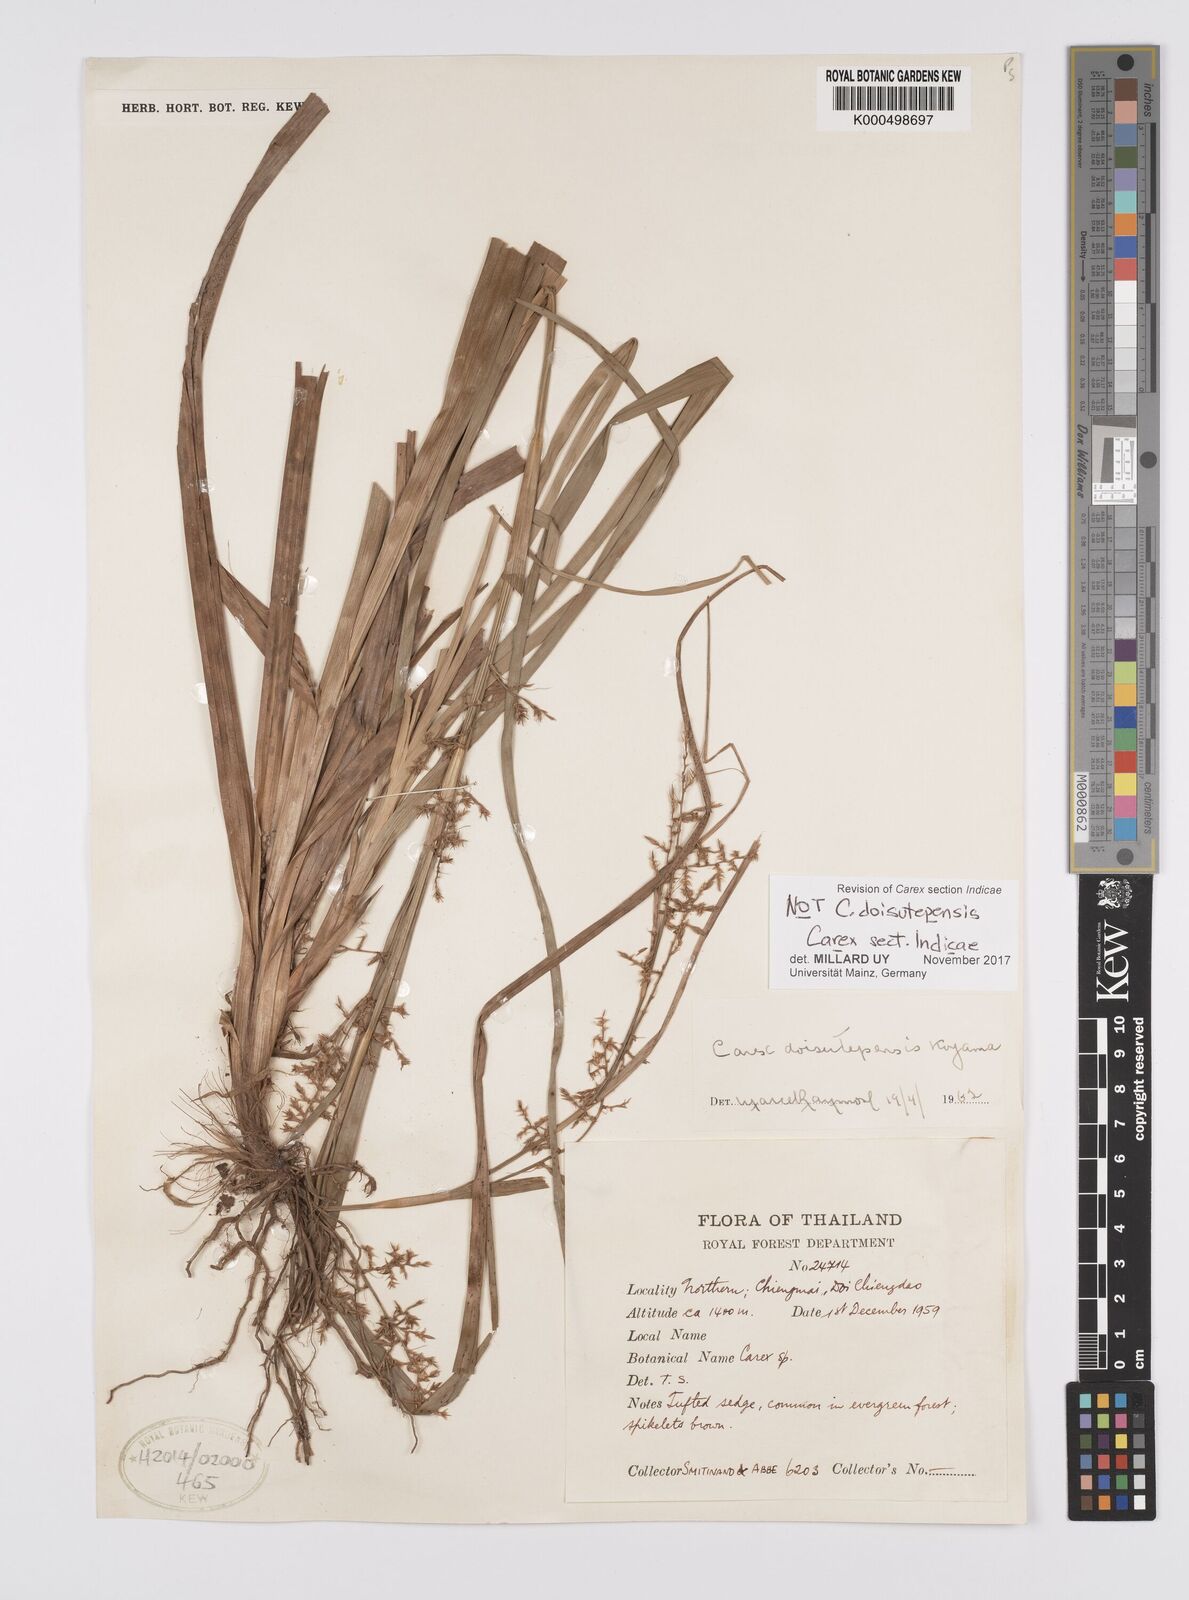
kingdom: Plantae
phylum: Tracheophyta
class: Liliopsida
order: Poales
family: Cyperaceae
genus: Carex
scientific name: Carex
